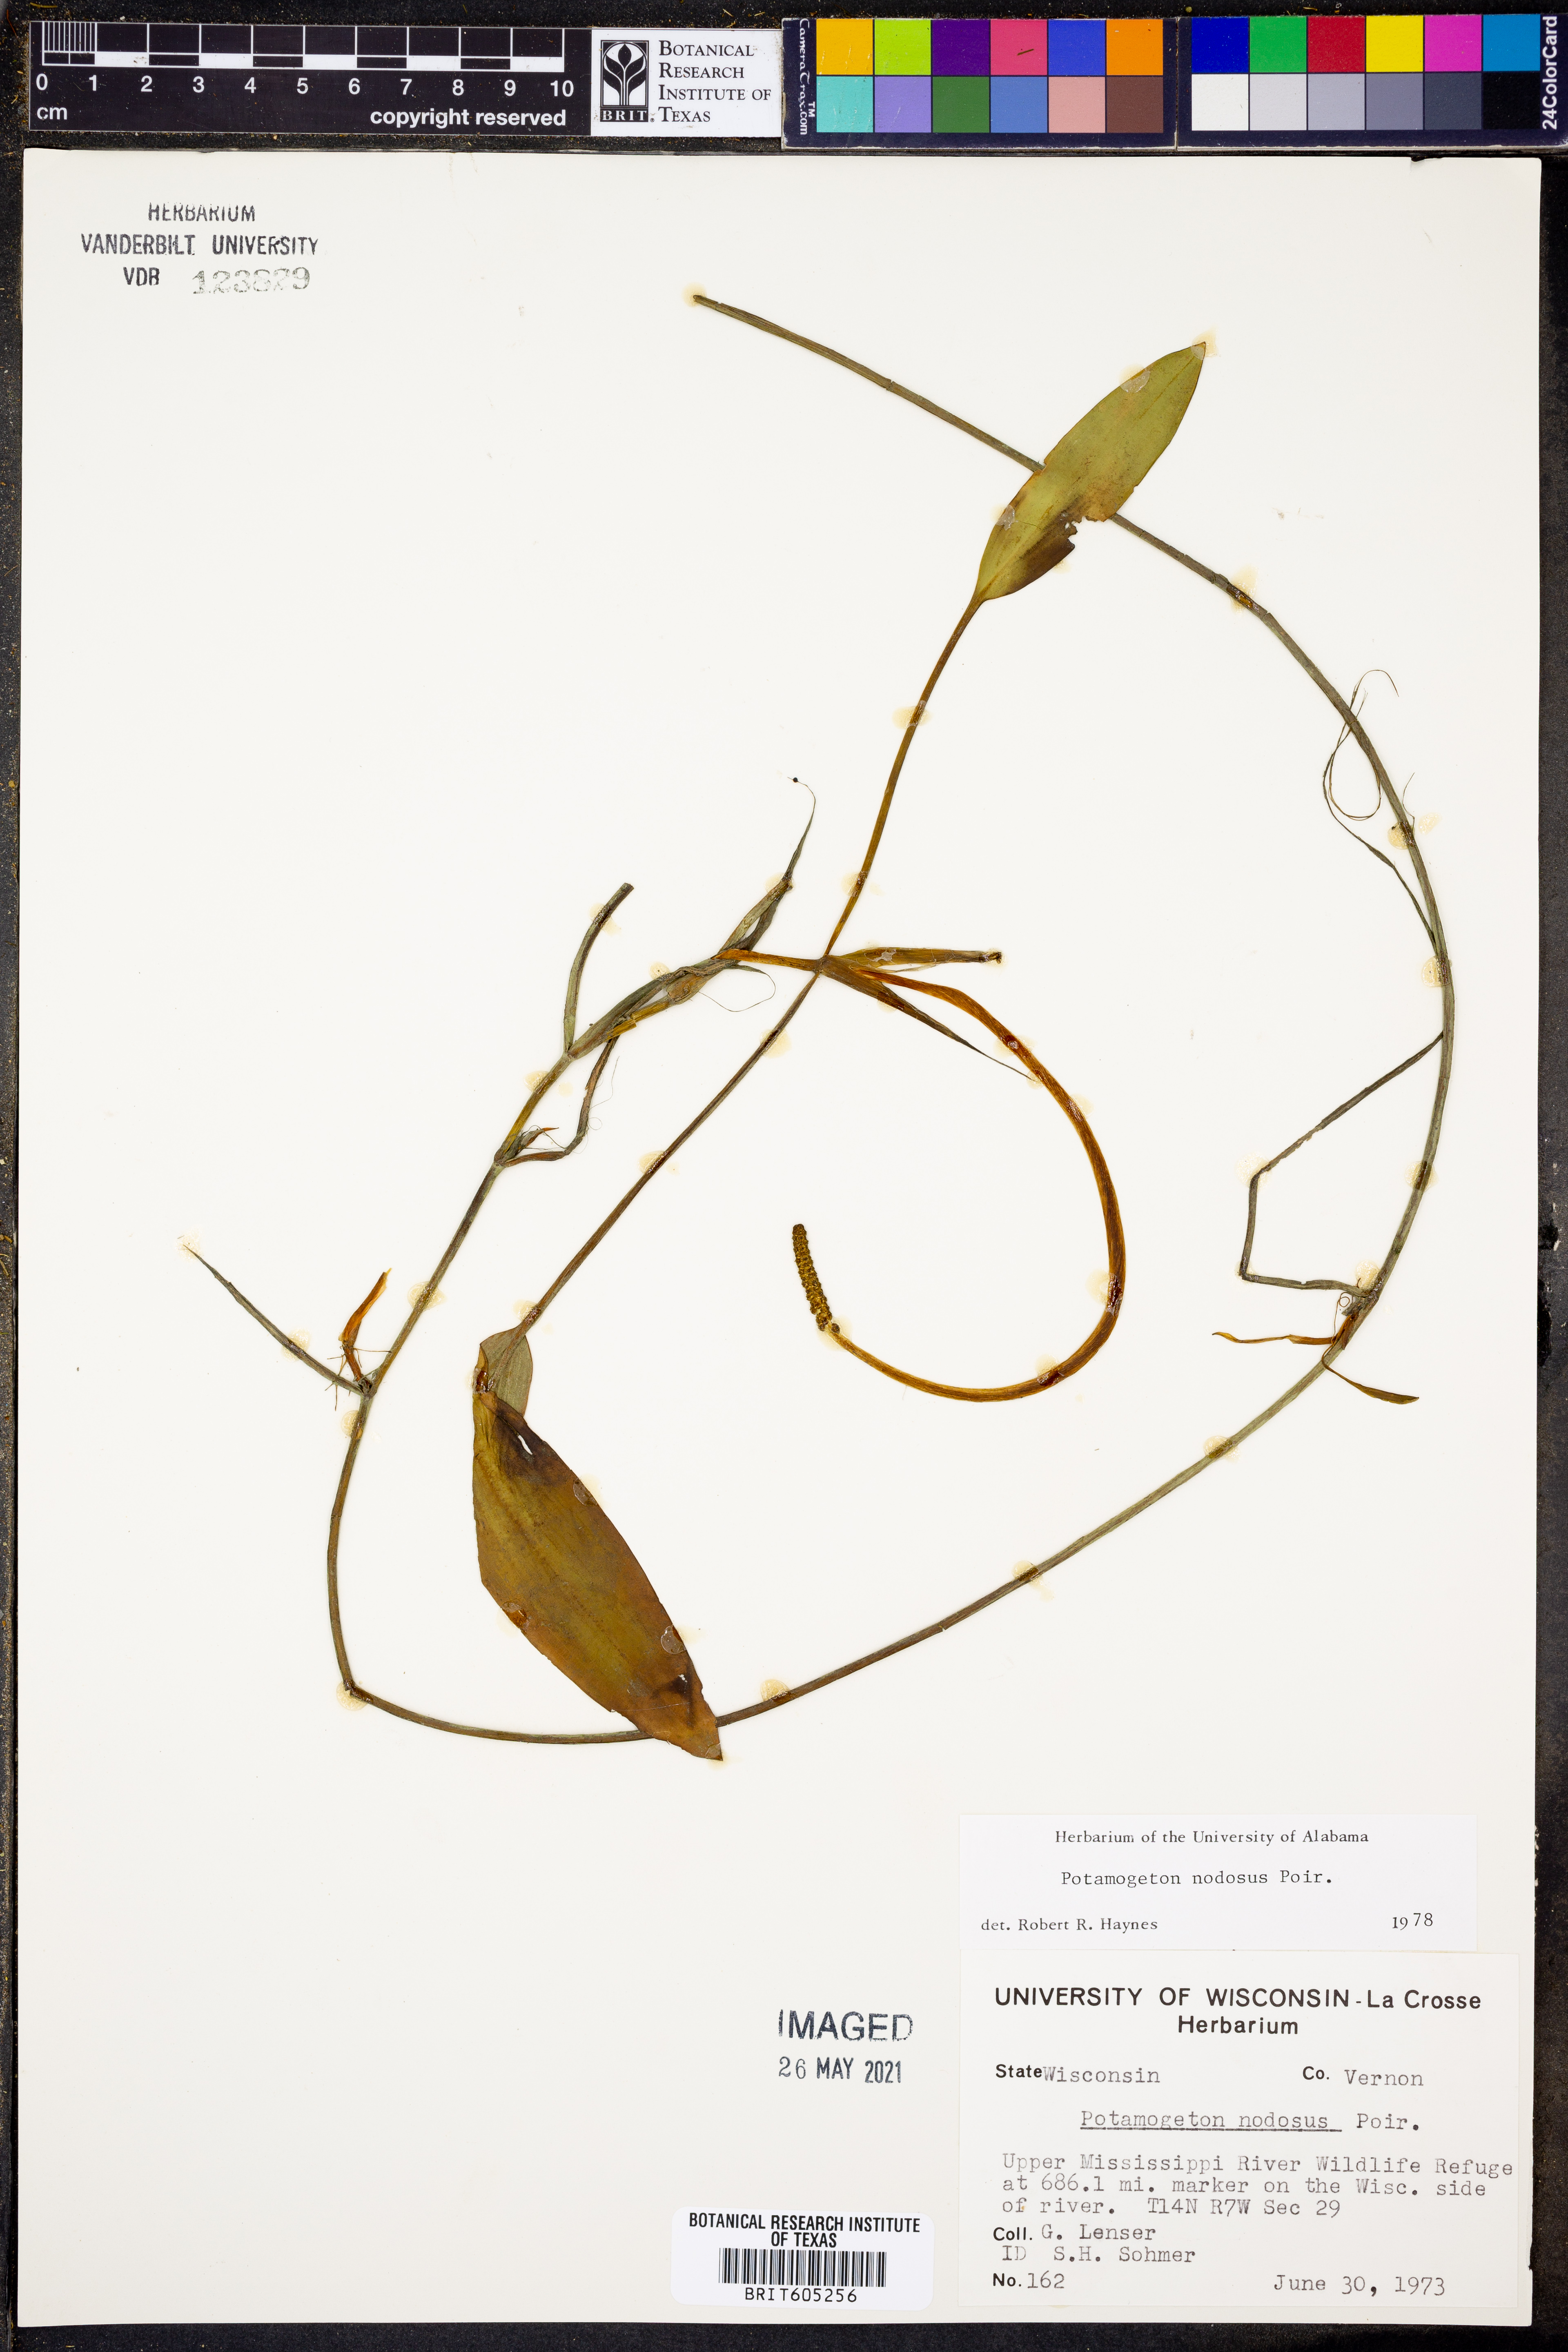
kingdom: Plantae
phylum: Tracheophyta
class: Liliopsida
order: Alismatales
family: Potamogetonaceae
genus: Potamogeton
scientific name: Potamogeton nodosus
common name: Loddon pondweed
